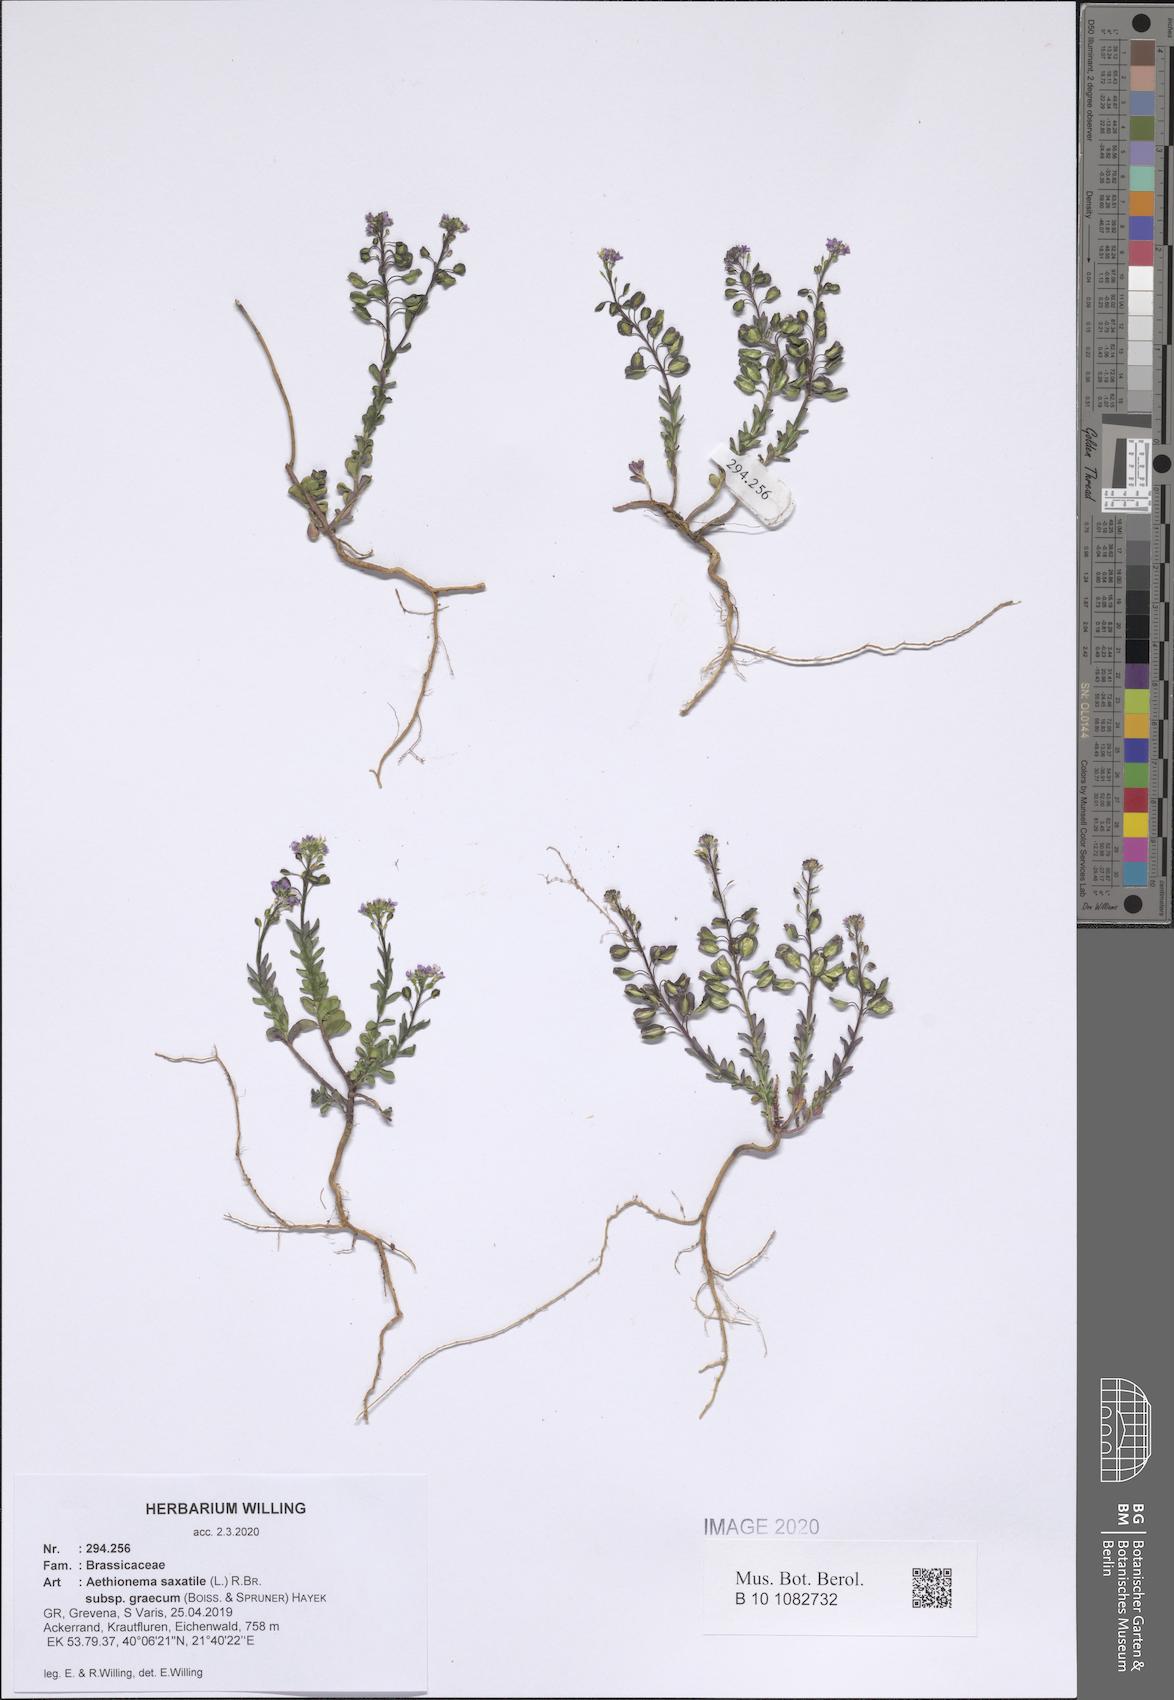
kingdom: Plantae
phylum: Tracheophyta
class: Magnoliopsida
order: Brassicales
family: Brassicaceae
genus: Aethionema
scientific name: Aethionema saxatile
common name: Burnt candytuft
